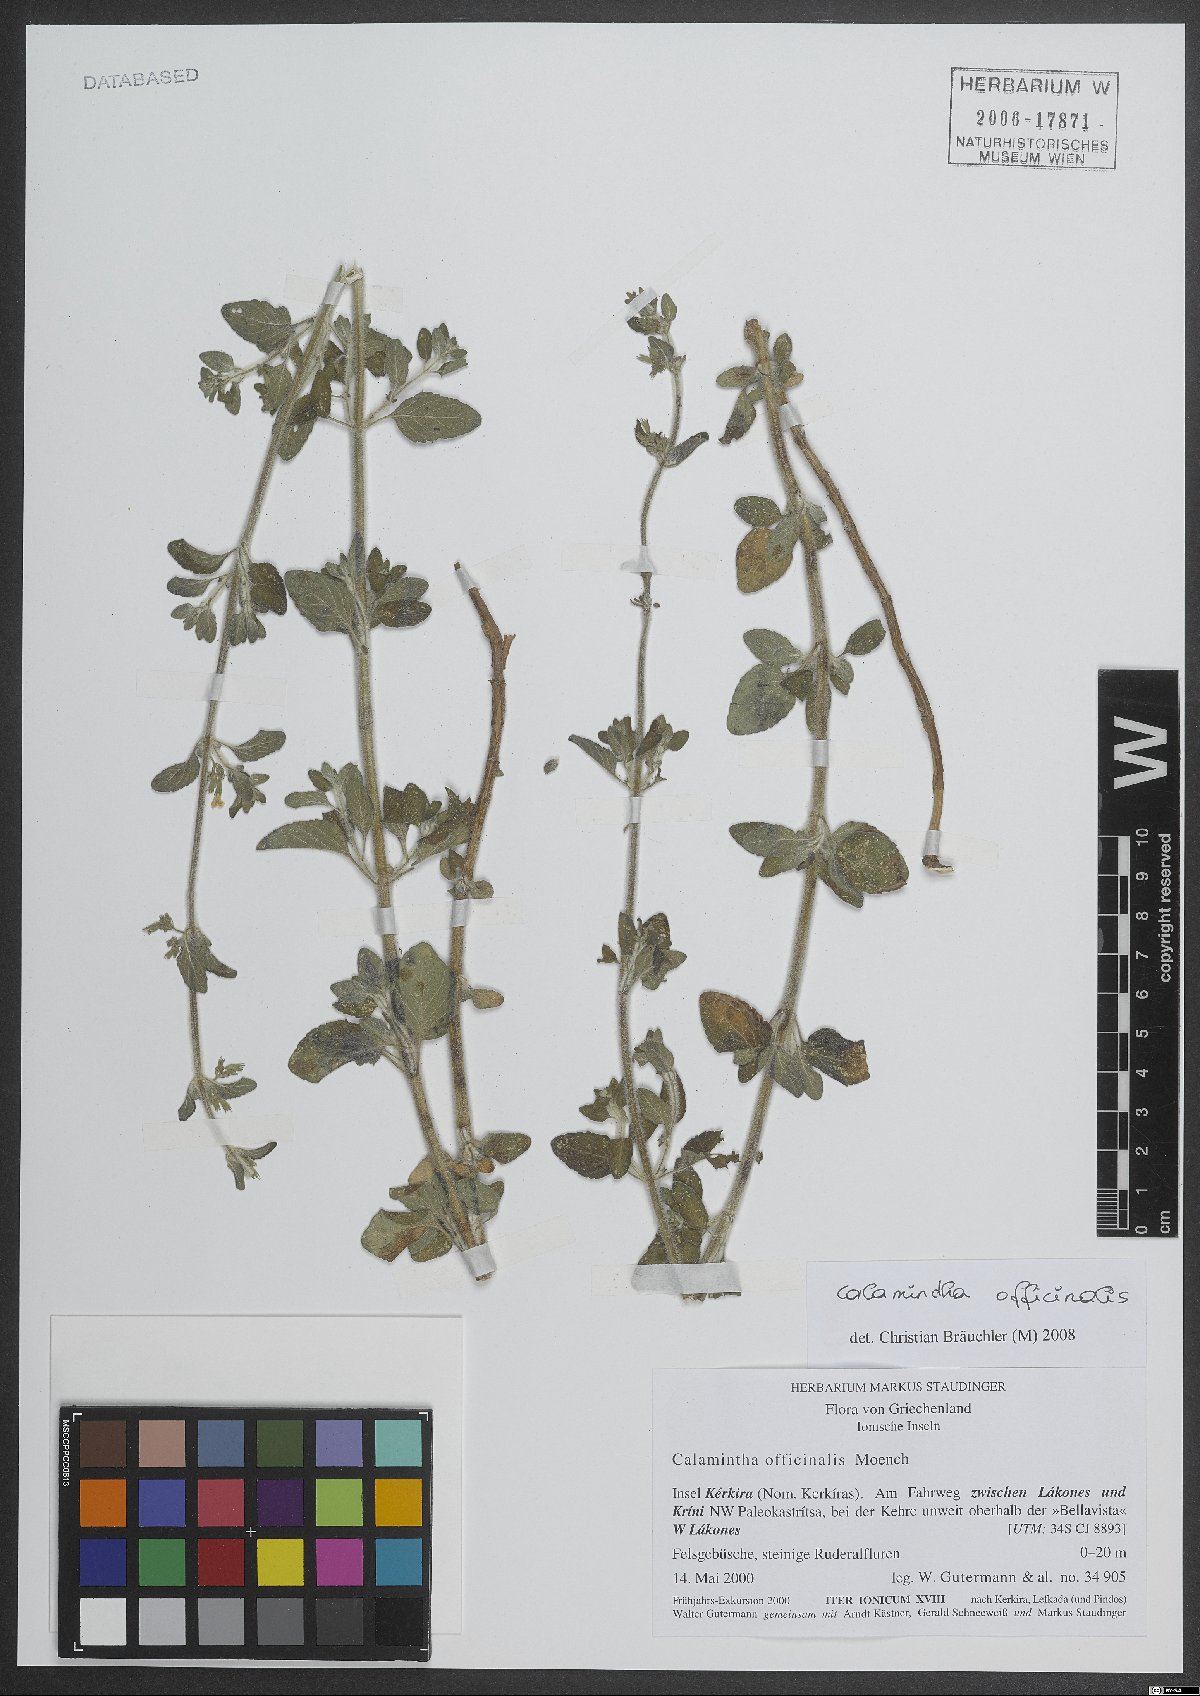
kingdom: Plantae
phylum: Tracheophyta
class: Magnoliopsida
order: Lamiales
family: Lamiaceae
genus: Clinopodium
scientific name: Clinopodium nepeta
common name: Lesser calamint
